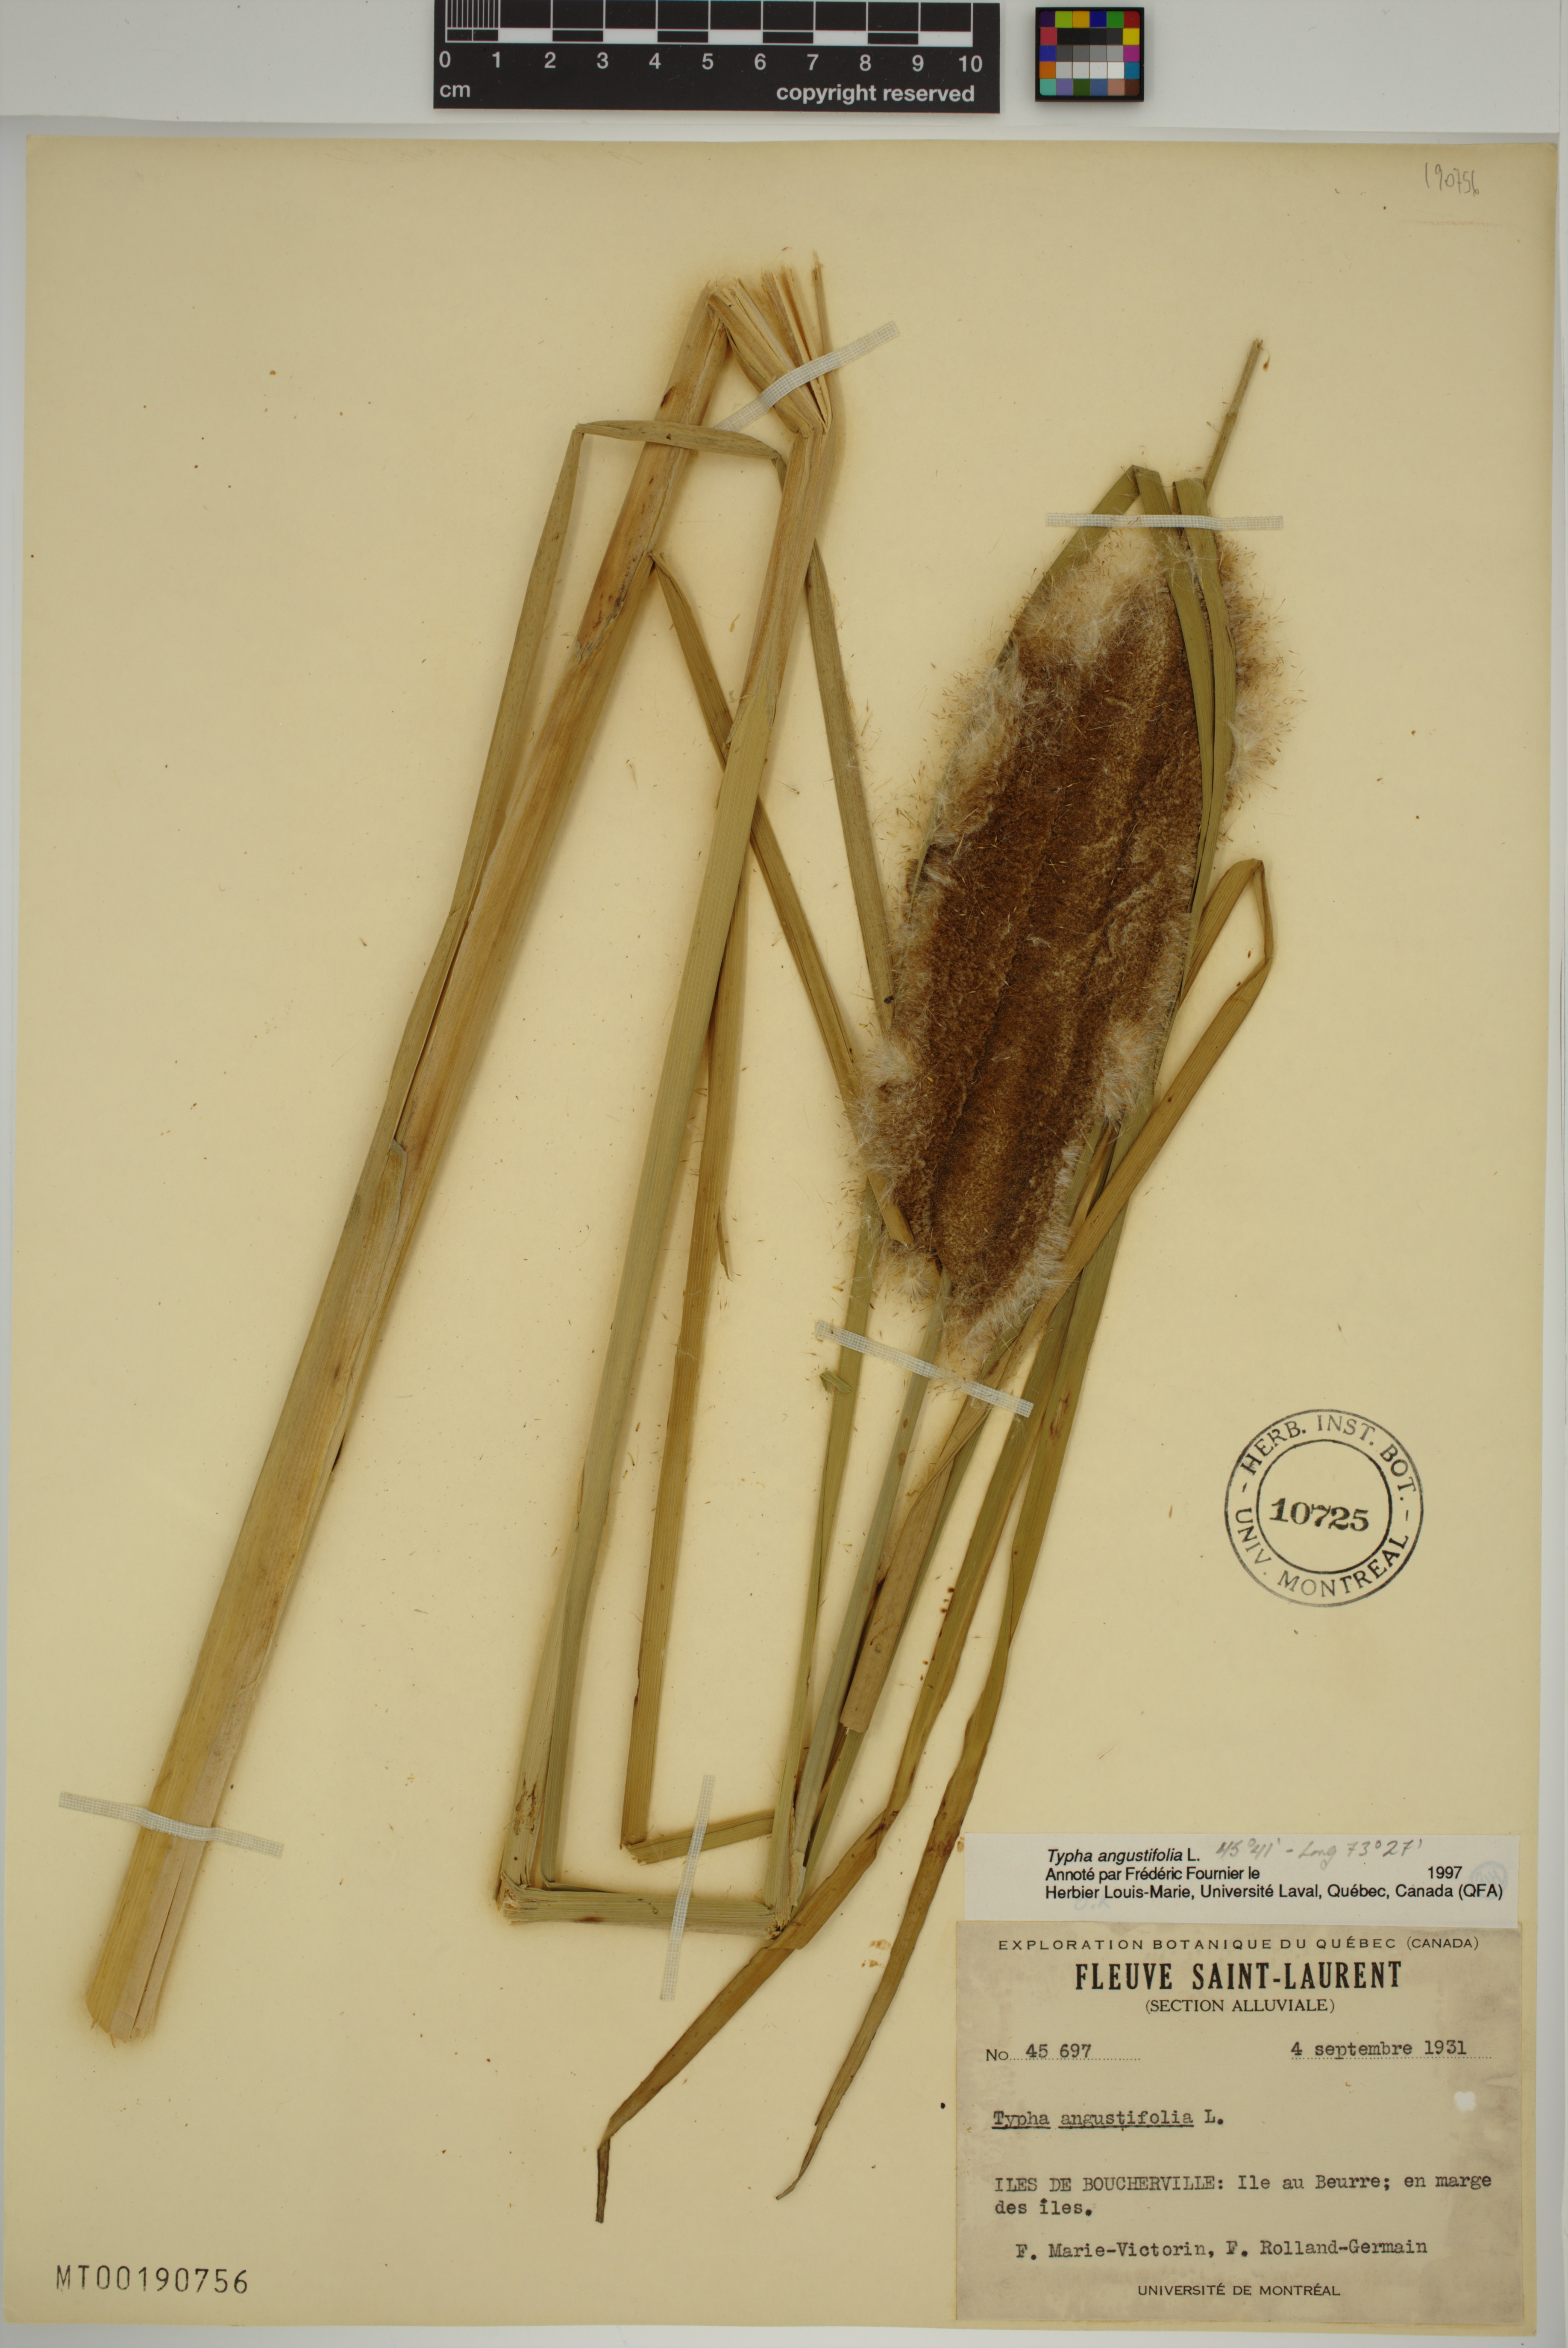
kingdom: Plantae
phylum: Tracheophyta
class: Liliopsida
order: Poales
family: Typhaceae
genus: Typha
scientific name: Typha angustifolia
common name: Lesser bulrush
